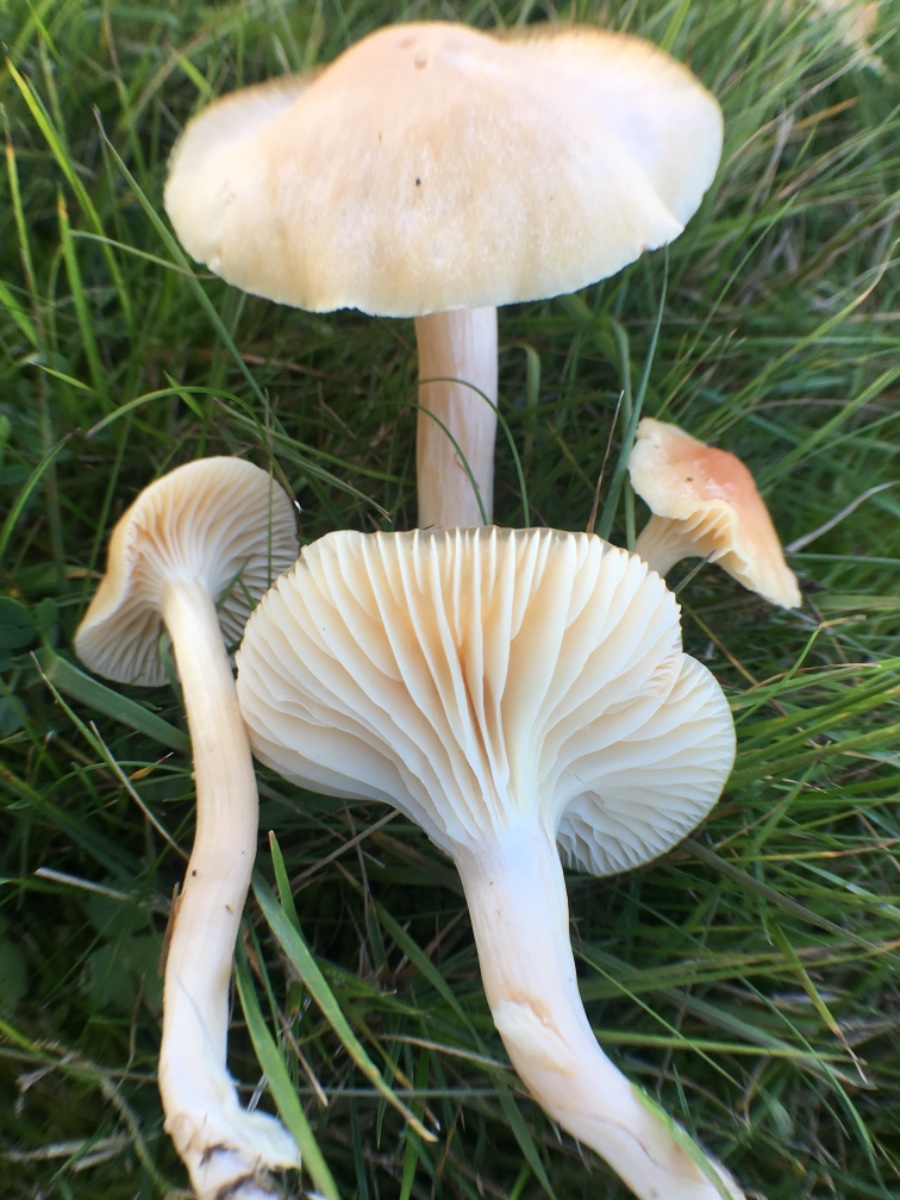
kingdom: Fungi
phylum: Basidiomycota
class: Agaricomycetes
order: Agaricales
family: Hygrophoraceae
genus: Cuphophyllus
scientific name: Cuphophyllus pratensis
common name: eng-vokshat
